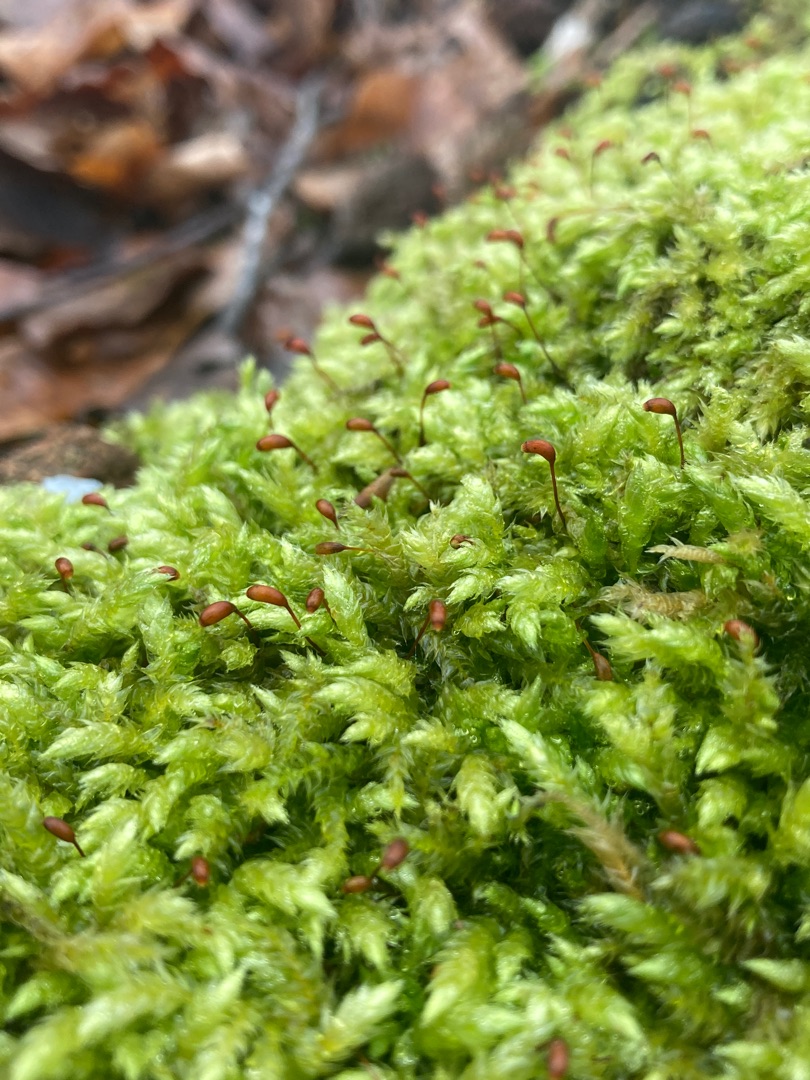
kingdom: Plantae
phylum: Bryophyta
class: Bryopsida
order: Hypnales
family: Brachytheciaceae
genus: Brachythecium
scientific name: Brachythecium rutabulum
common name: Almindelig kortkapsel
